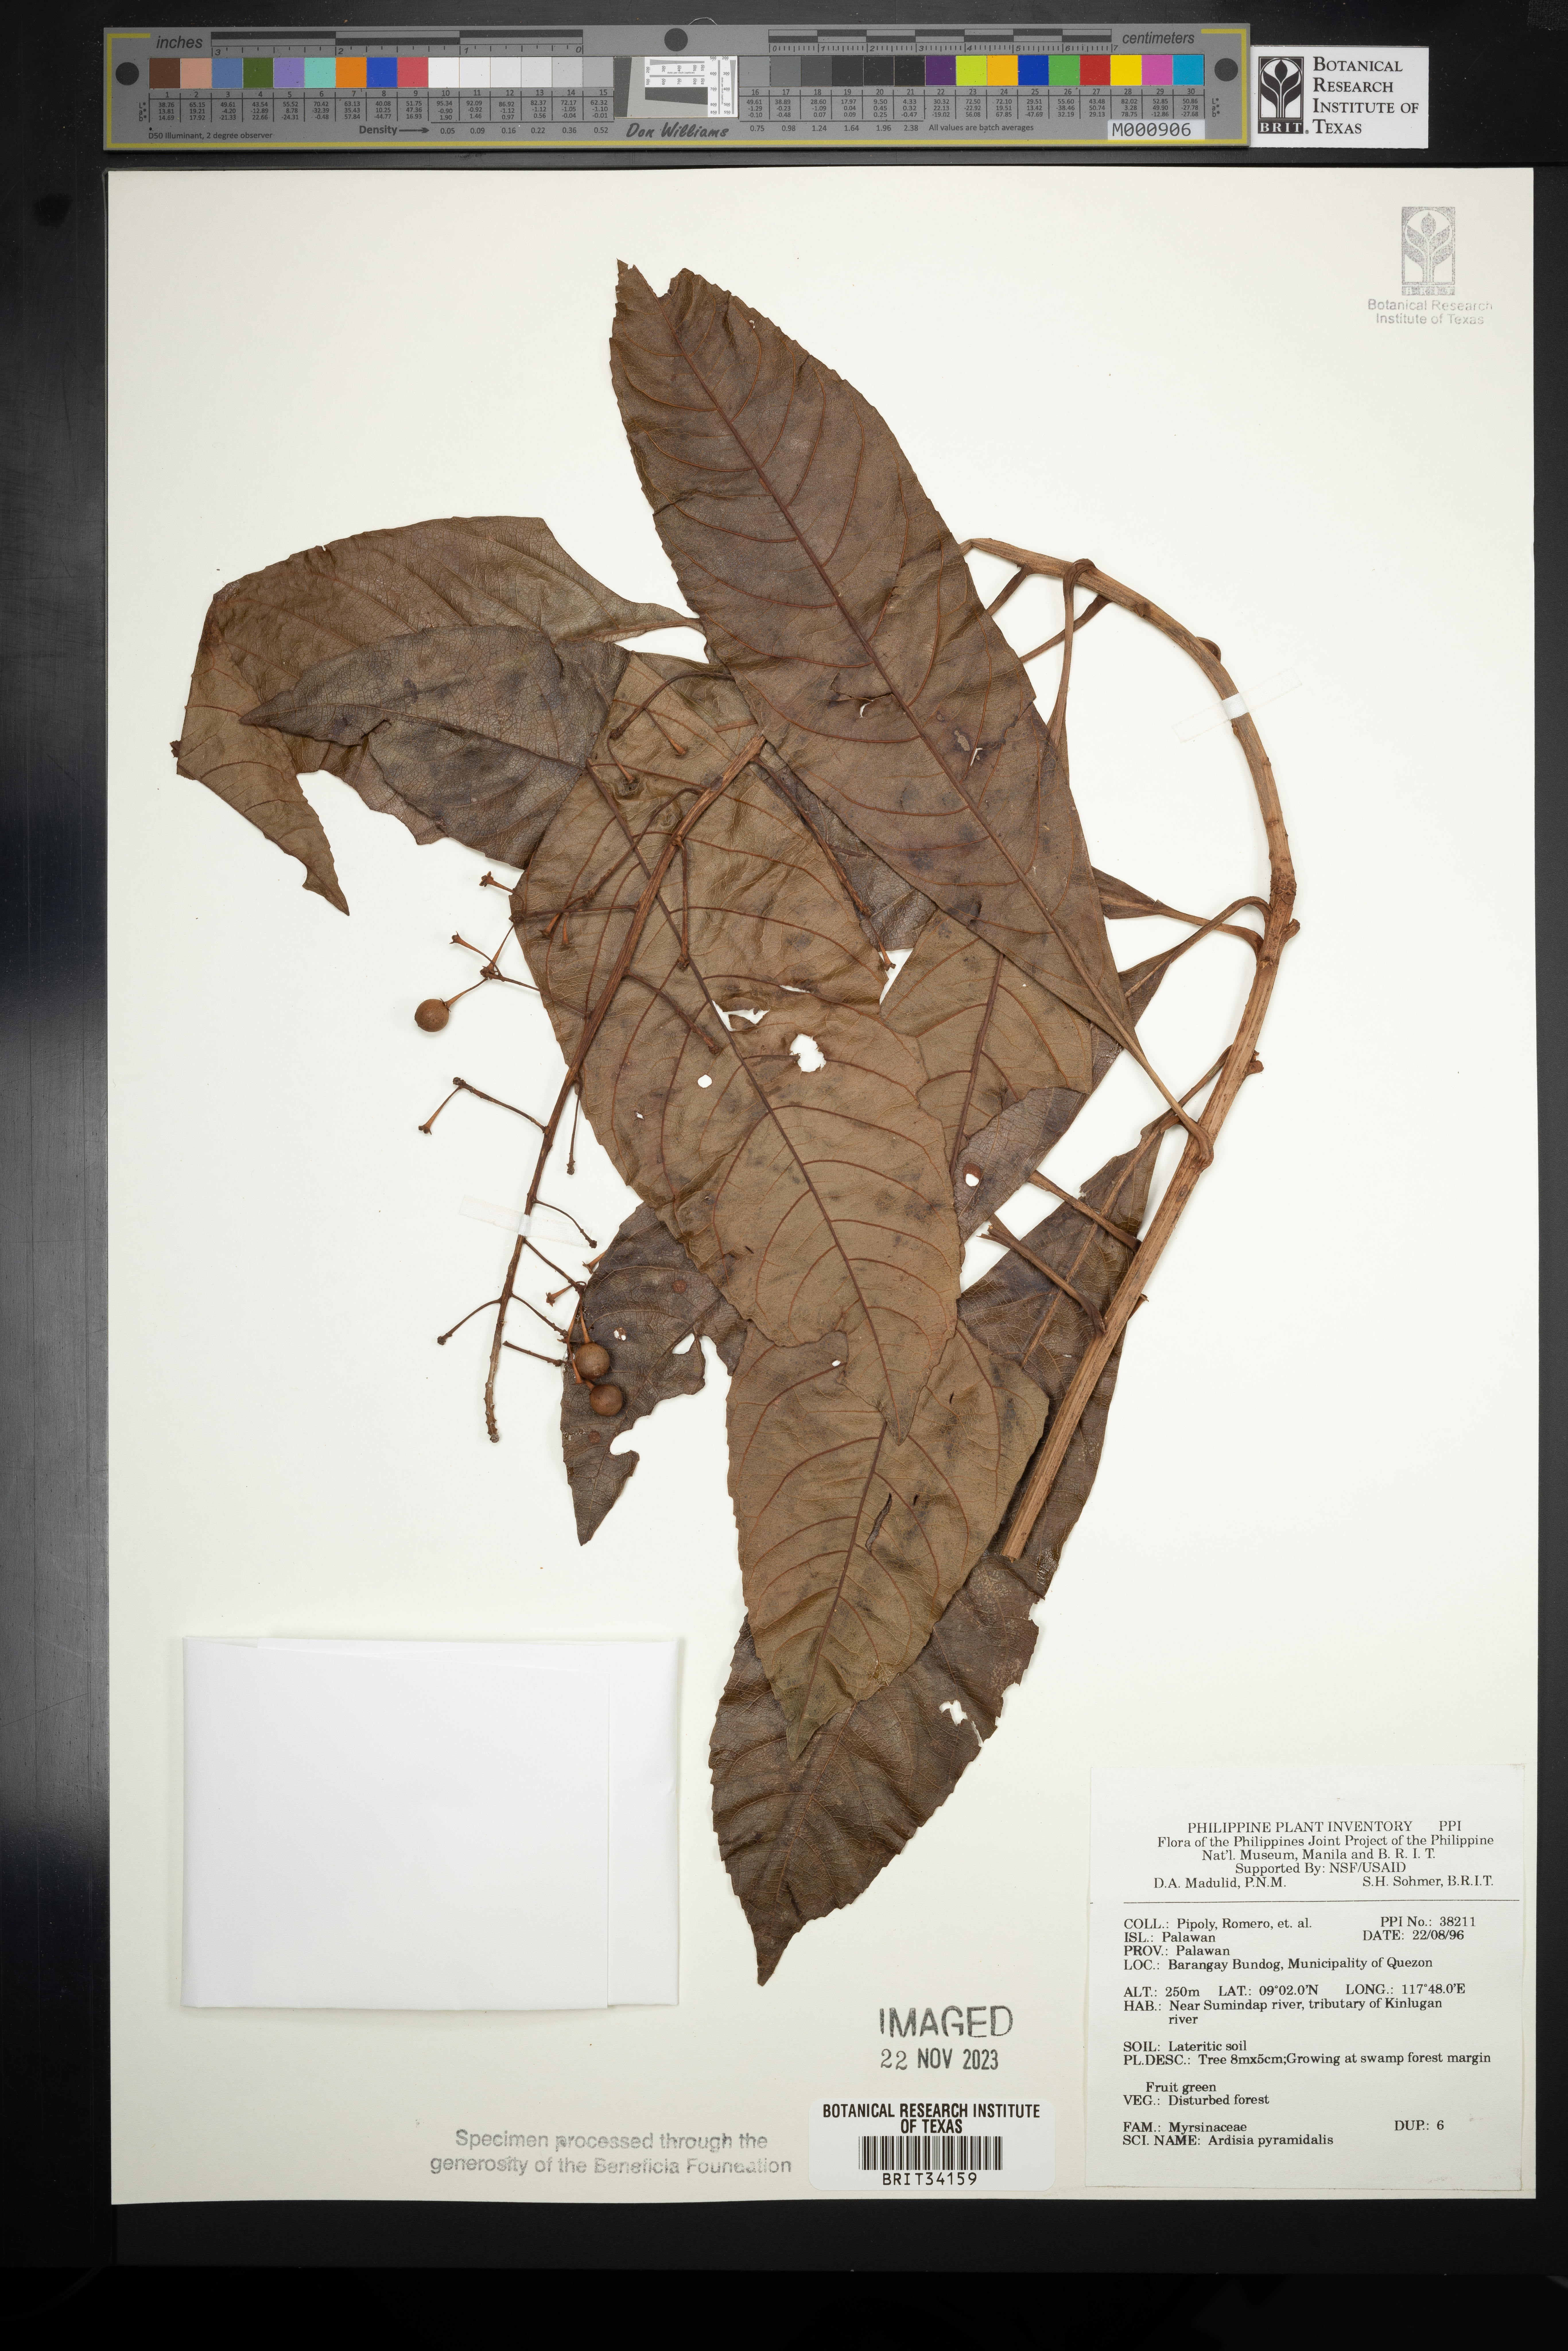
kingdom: Plantae
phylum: Tracheophyta
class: Magnoliopsida
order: Ericales
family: Primulaceae
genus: Ardisia
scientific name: Ardisia pyramidalis
